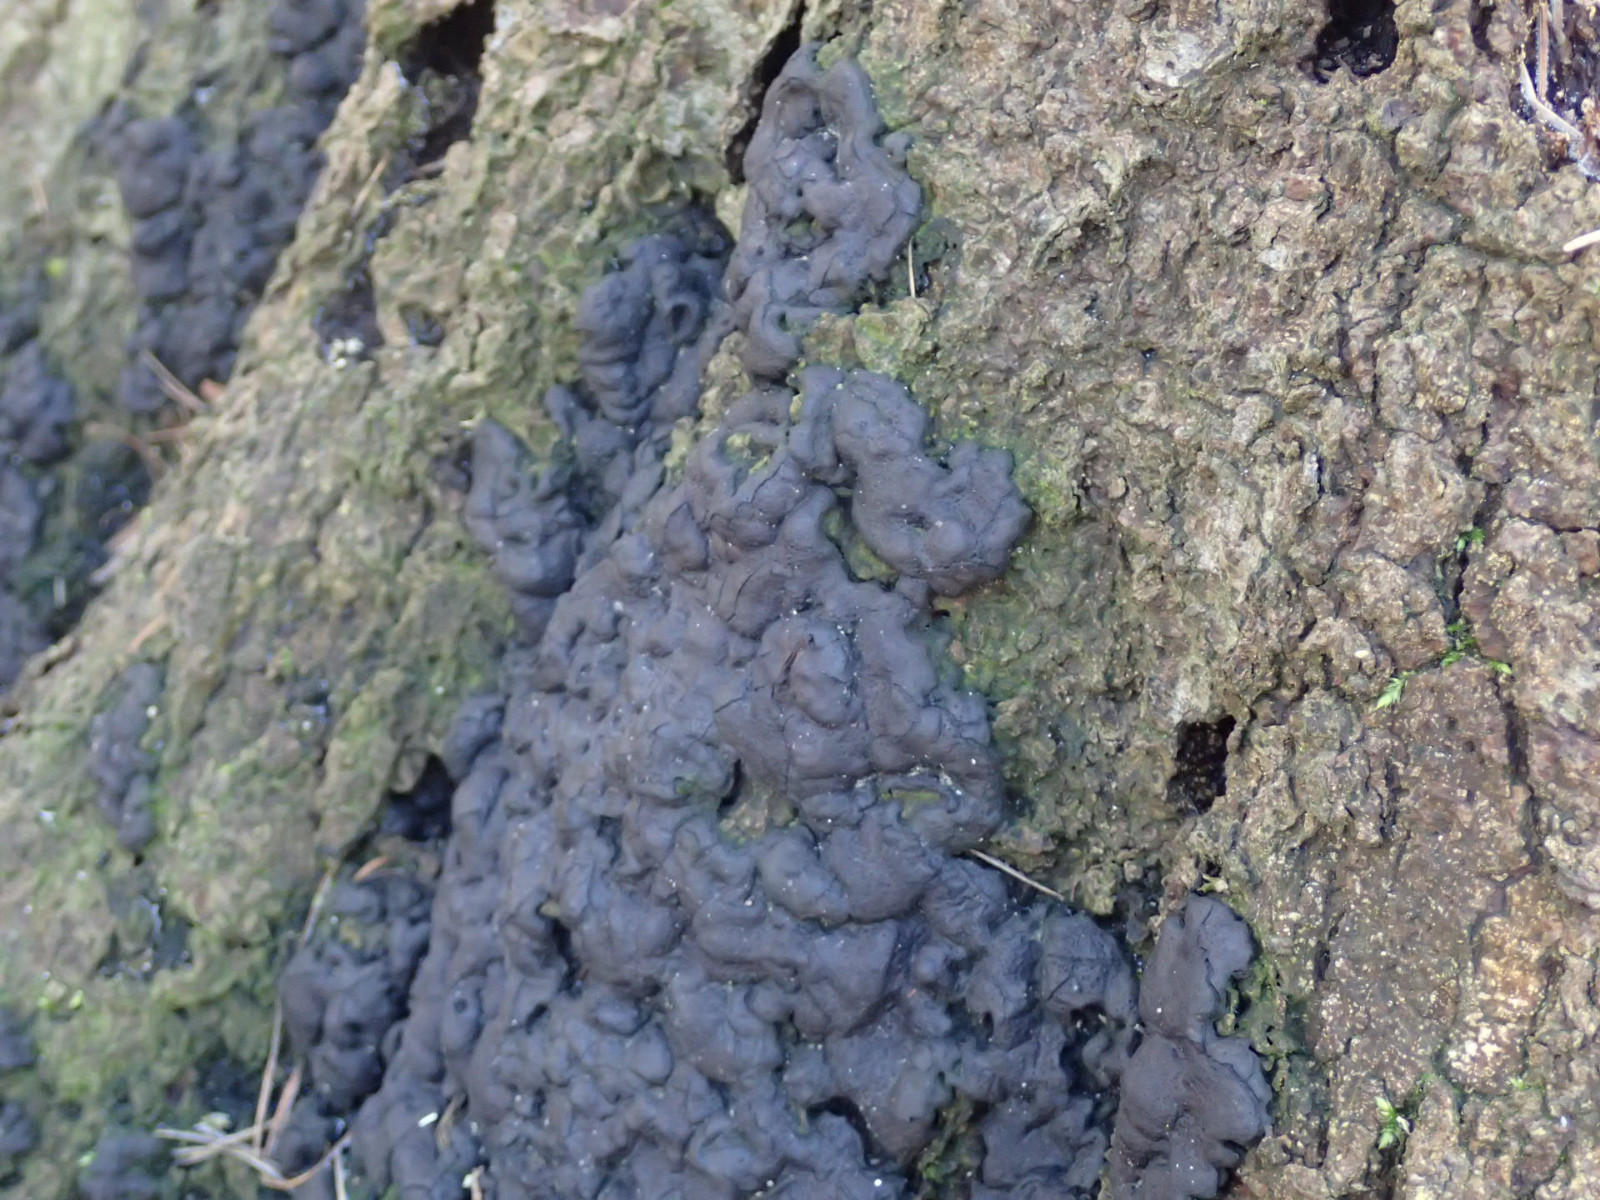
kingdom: Fungi
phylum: Ascomycota
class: Sordariomycetes
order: Xylariales
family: Xylariaceae
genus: Kretzschmaria
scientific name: Kretzschmaria deusta
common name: stor kulsvamp
